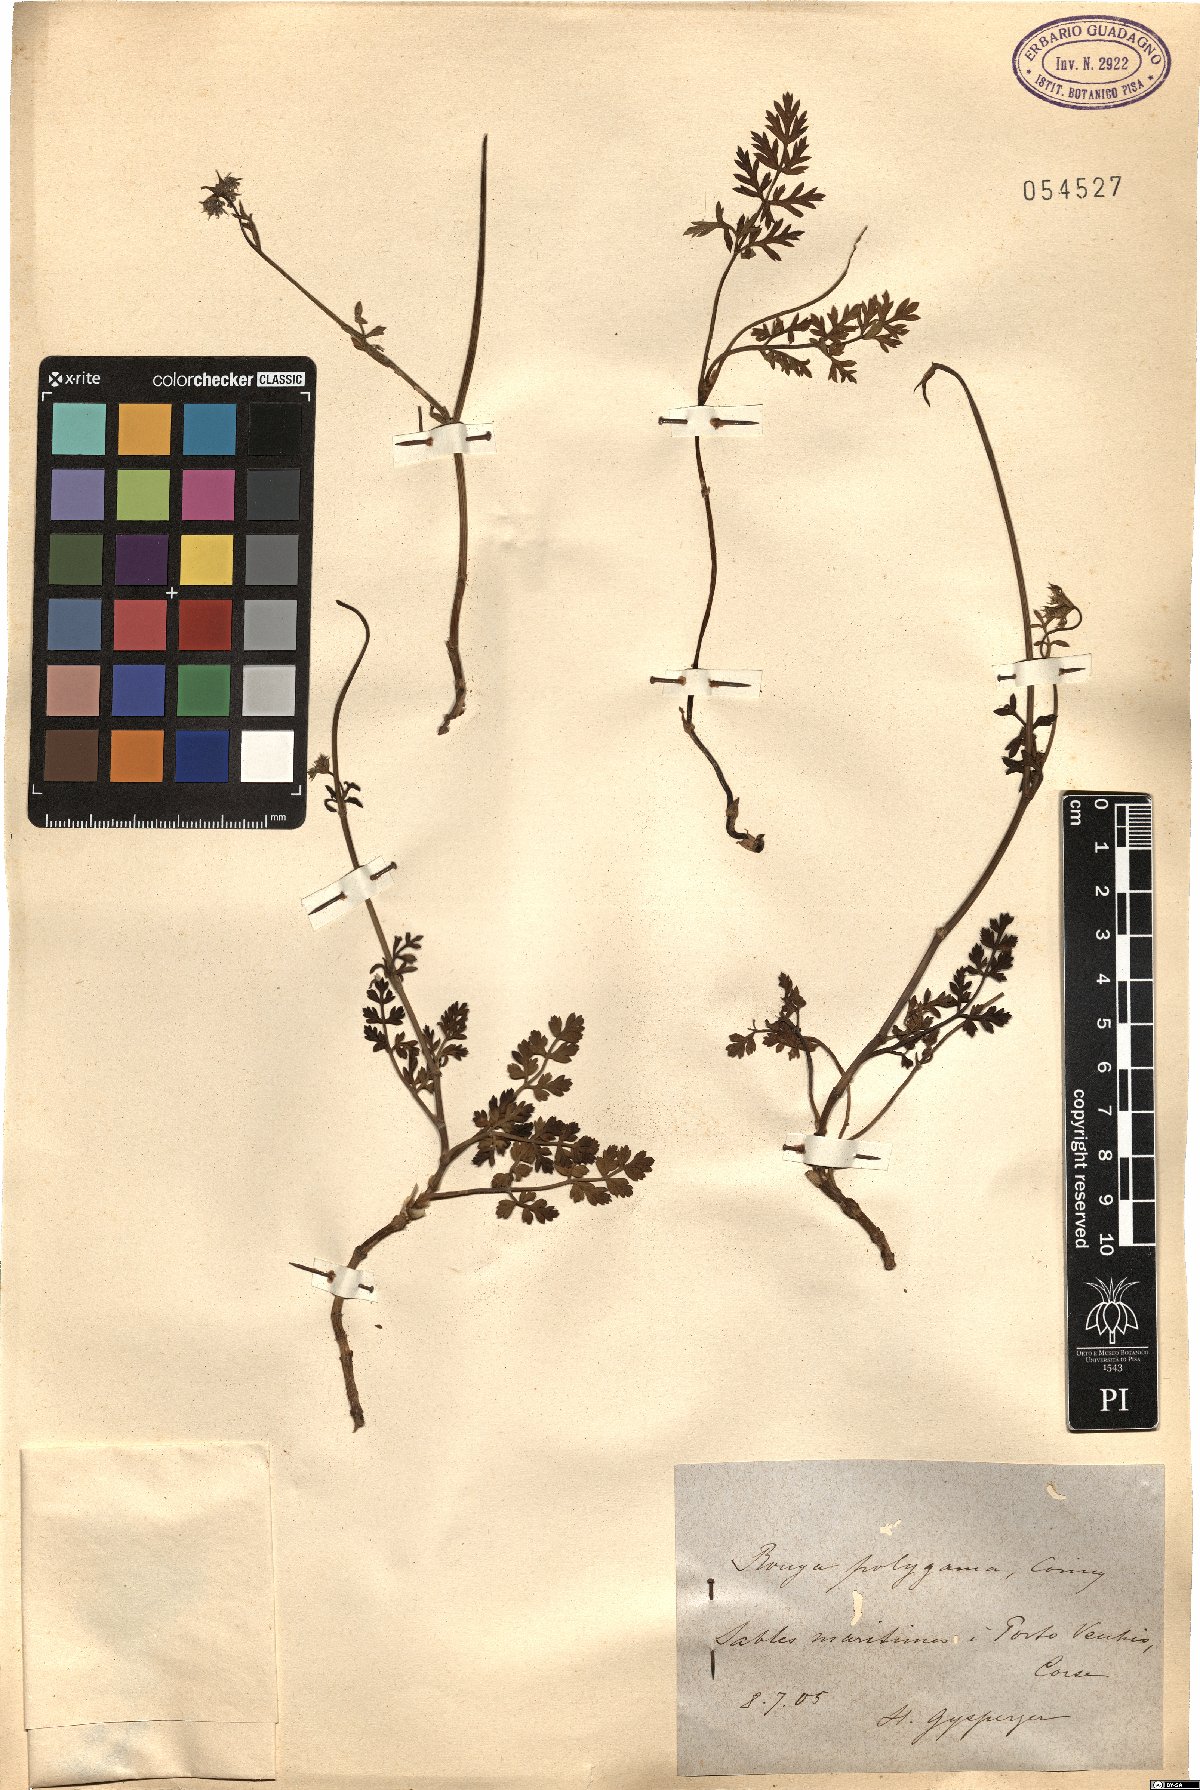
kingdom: Plantae
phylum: Tracheophyta
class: Magnoliopsida
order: Apiales
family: Apiaceae
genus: Daucus
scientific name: Daucus rouyi
